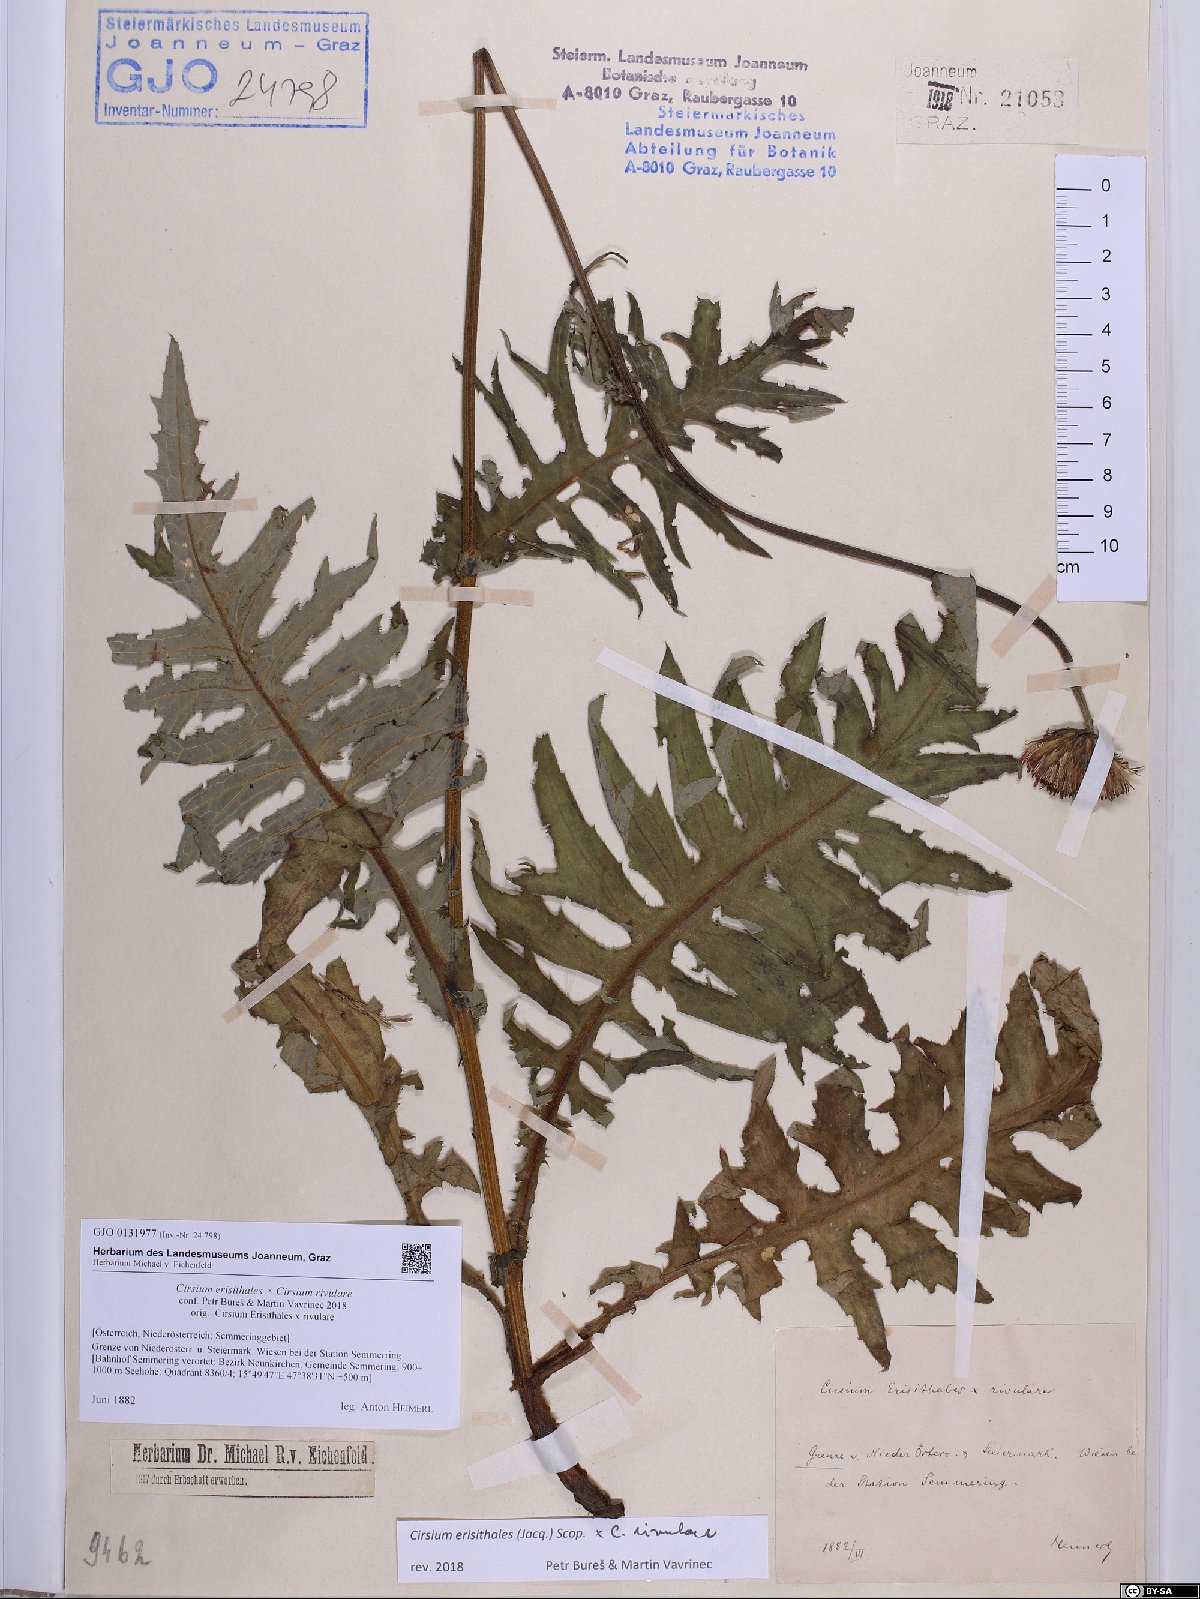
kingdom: Plantae
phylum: Tracheophyta
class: Magnoliopsida
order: Asterales
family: Asteraceae
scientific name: Asteraceae
